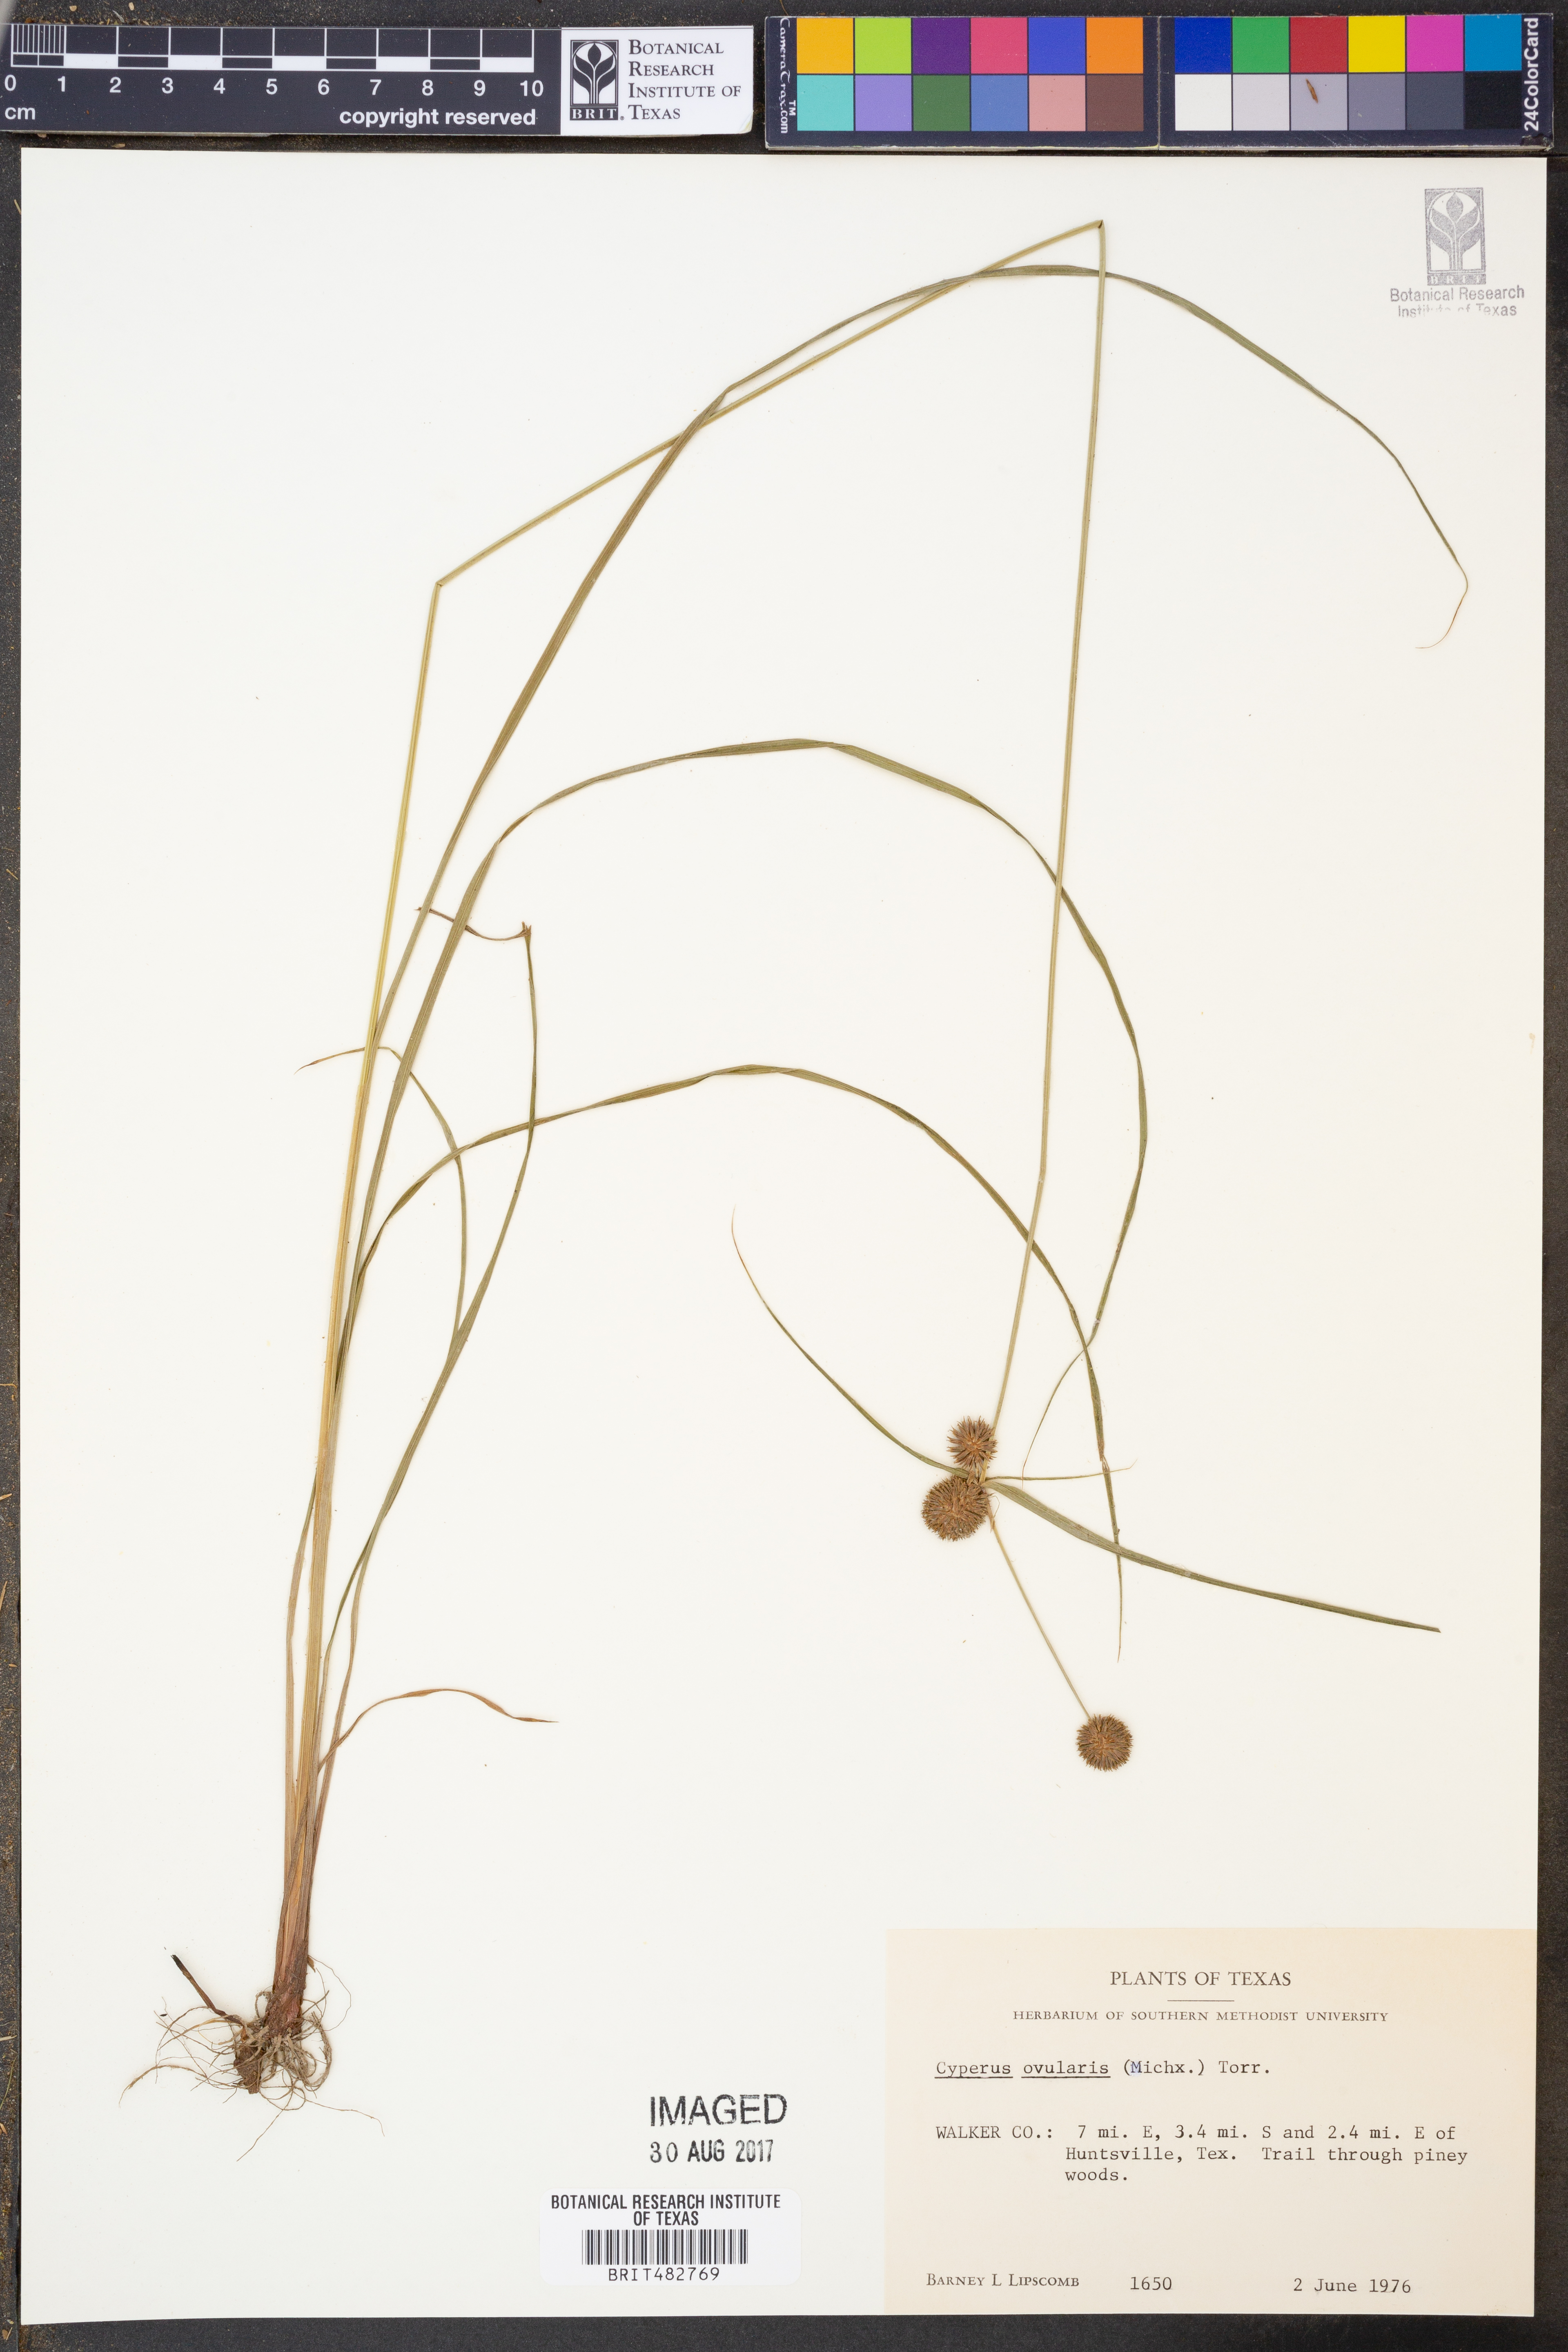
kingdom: Plantae
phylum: Tracheophyta
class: Liliopsida
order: Poales
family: Cyperaceae
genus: Cyperus
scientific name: Cyperus echinatus
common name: Teasel sedge
